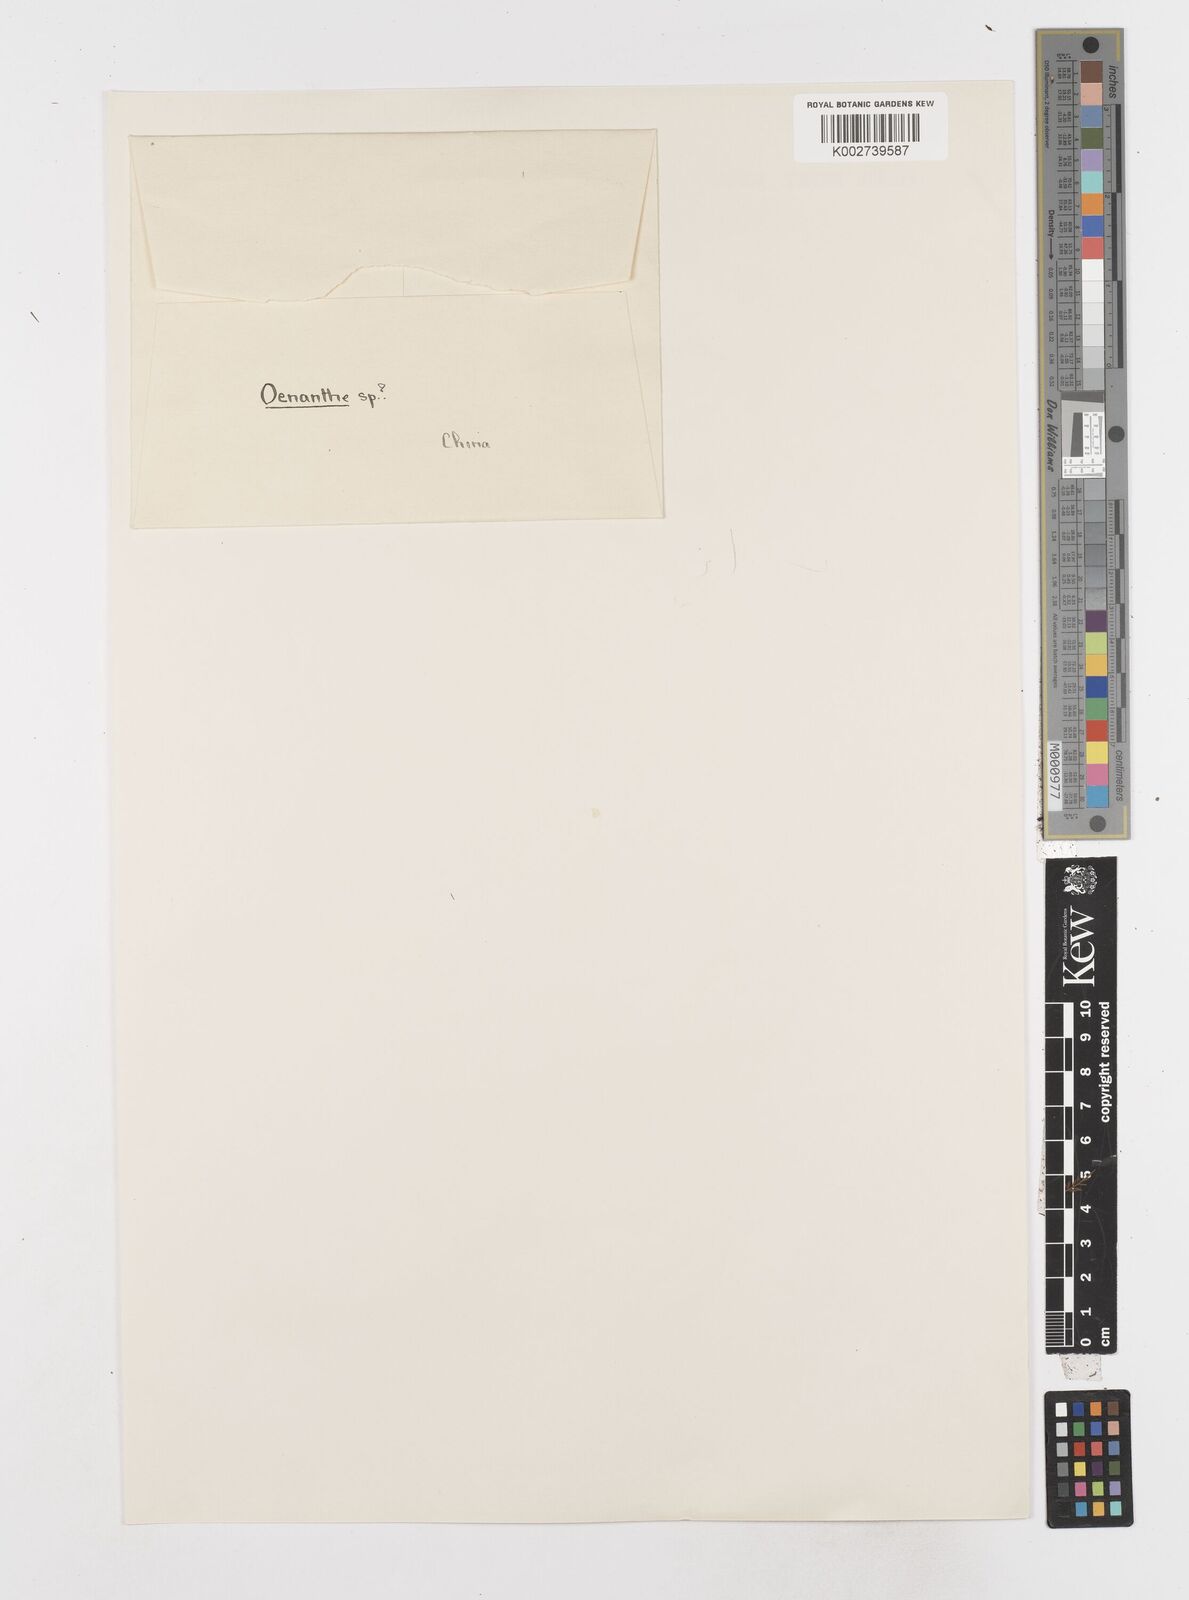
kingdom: Plantae
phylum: Tracheophyta
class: Magnoliopsida
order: Apiales
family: Apiaceae
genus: Oenanthe
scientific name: Oenanthe amoena
